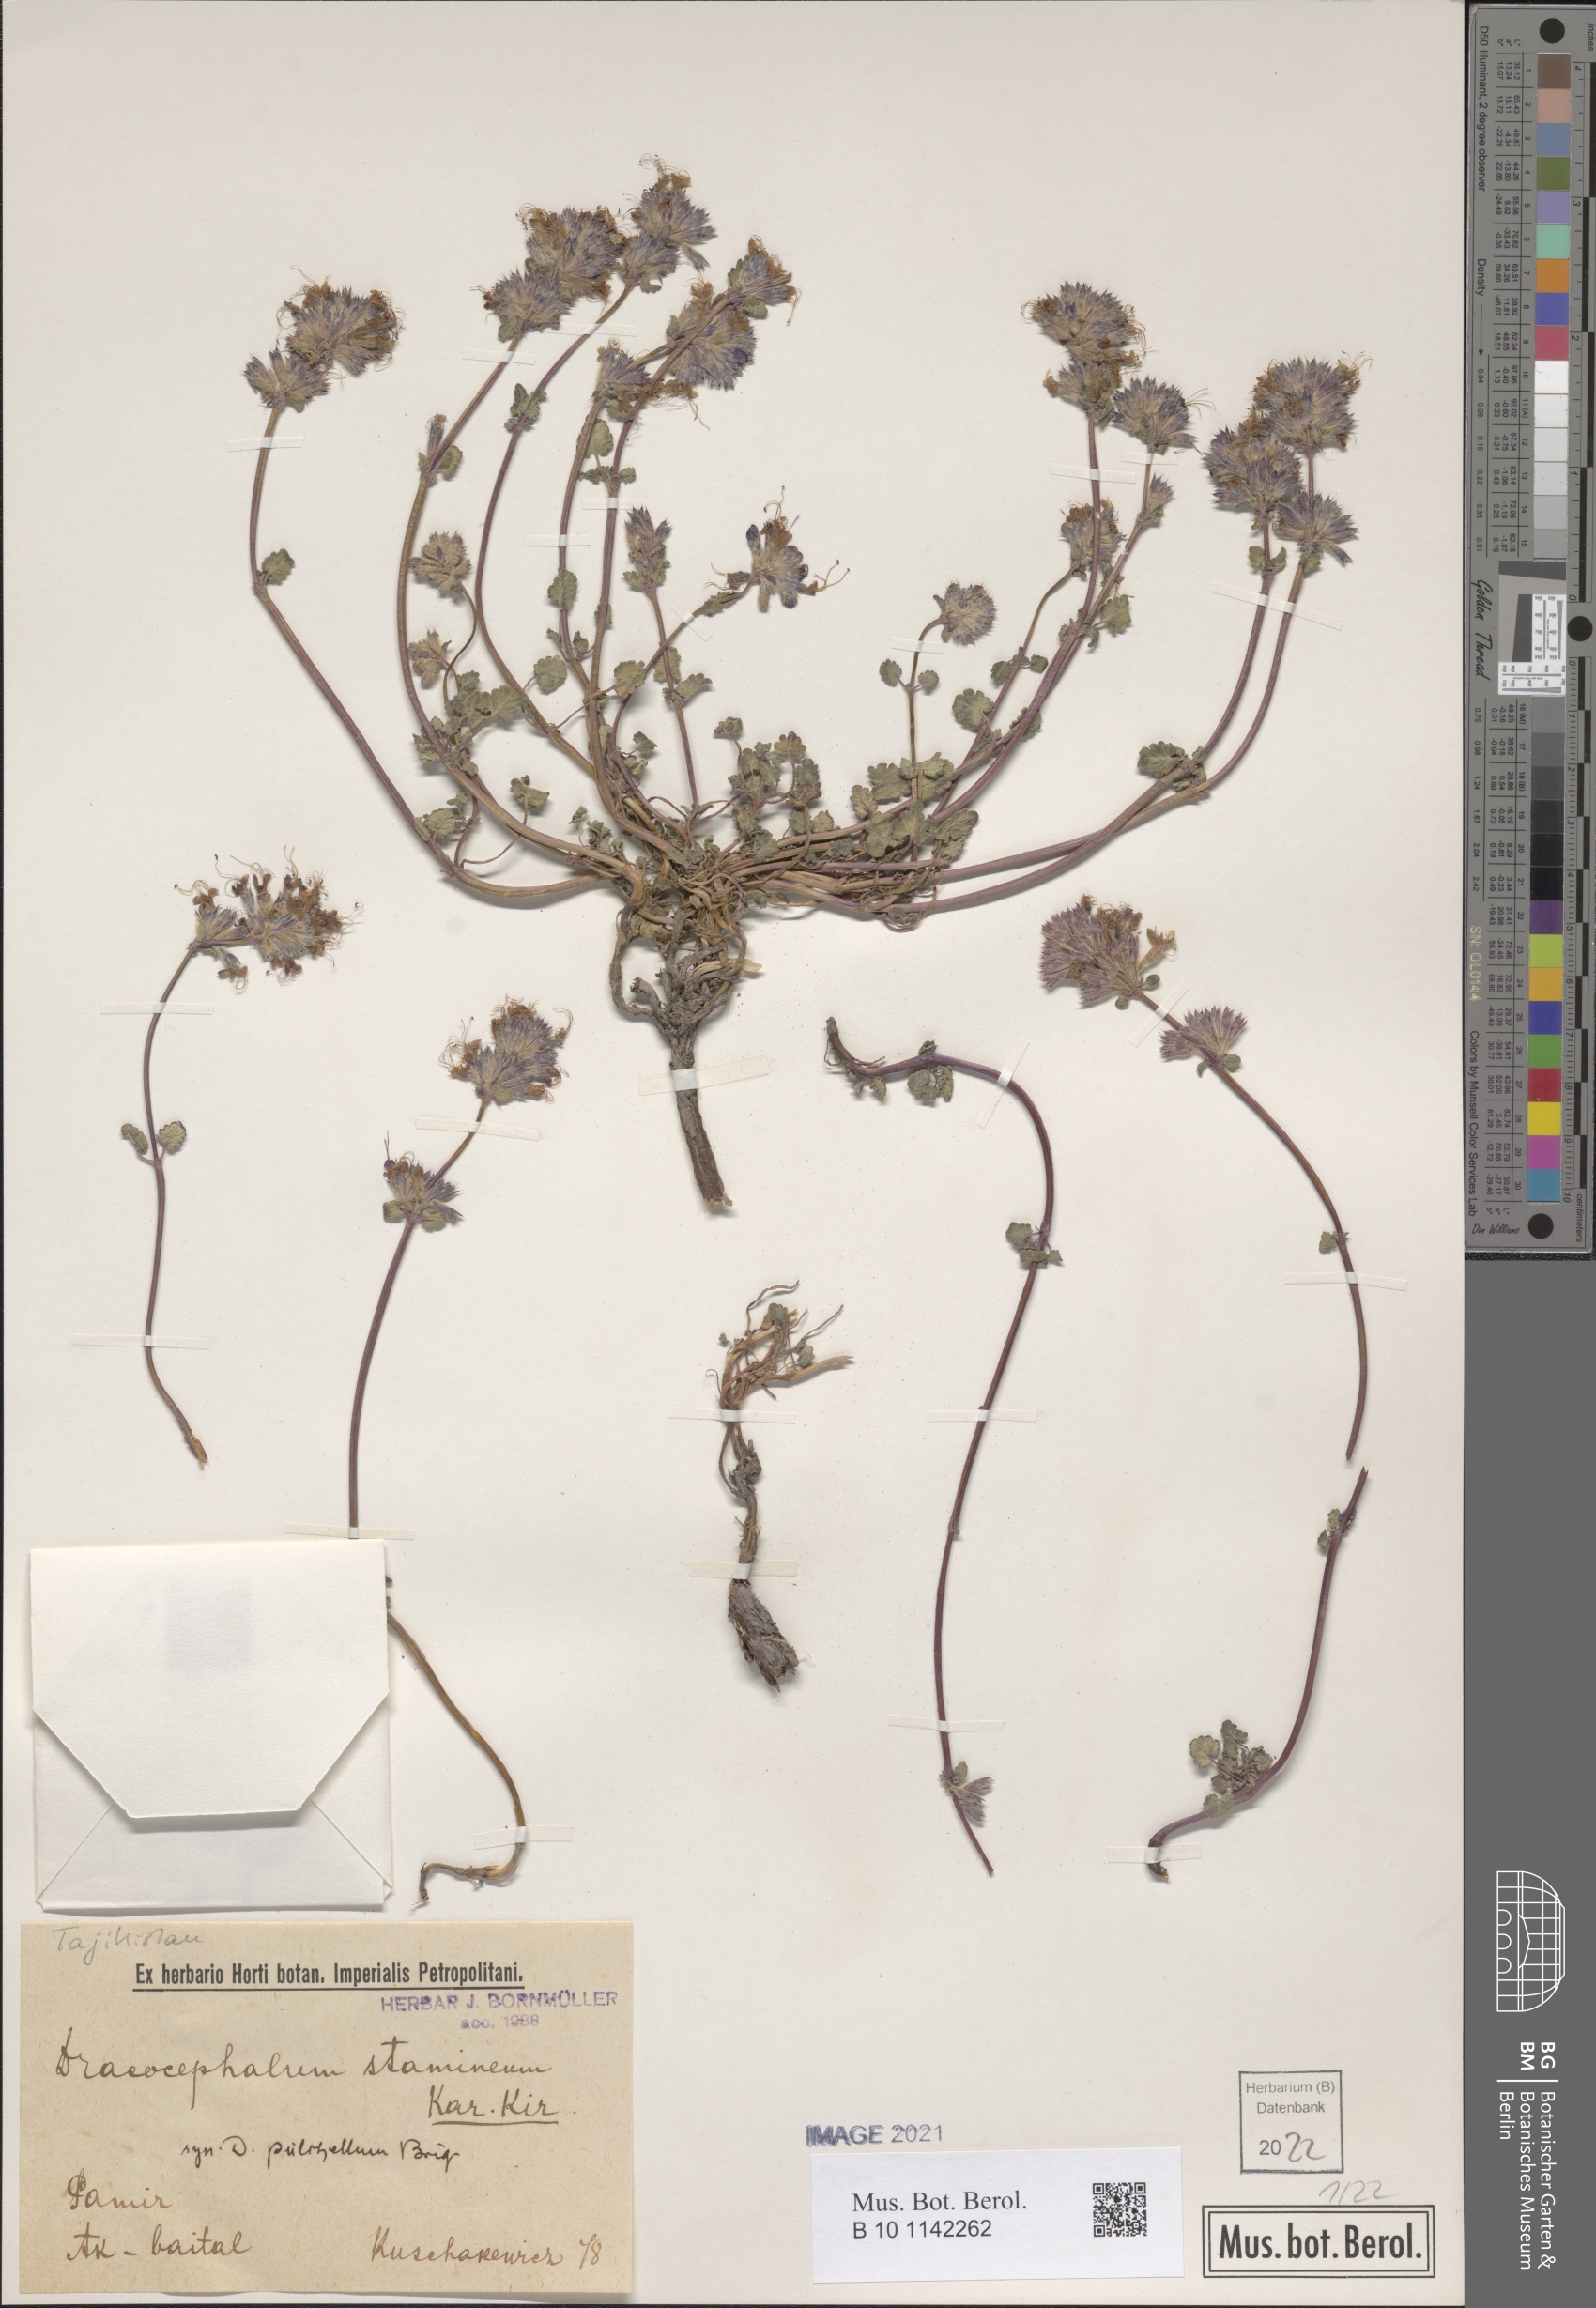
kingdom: Plantae
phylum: Tracheophyta
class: Magnoliopsida
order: Lamiales
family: Lamiaceae
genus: Dracocephalum
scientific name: Dracocephalum stamineum
